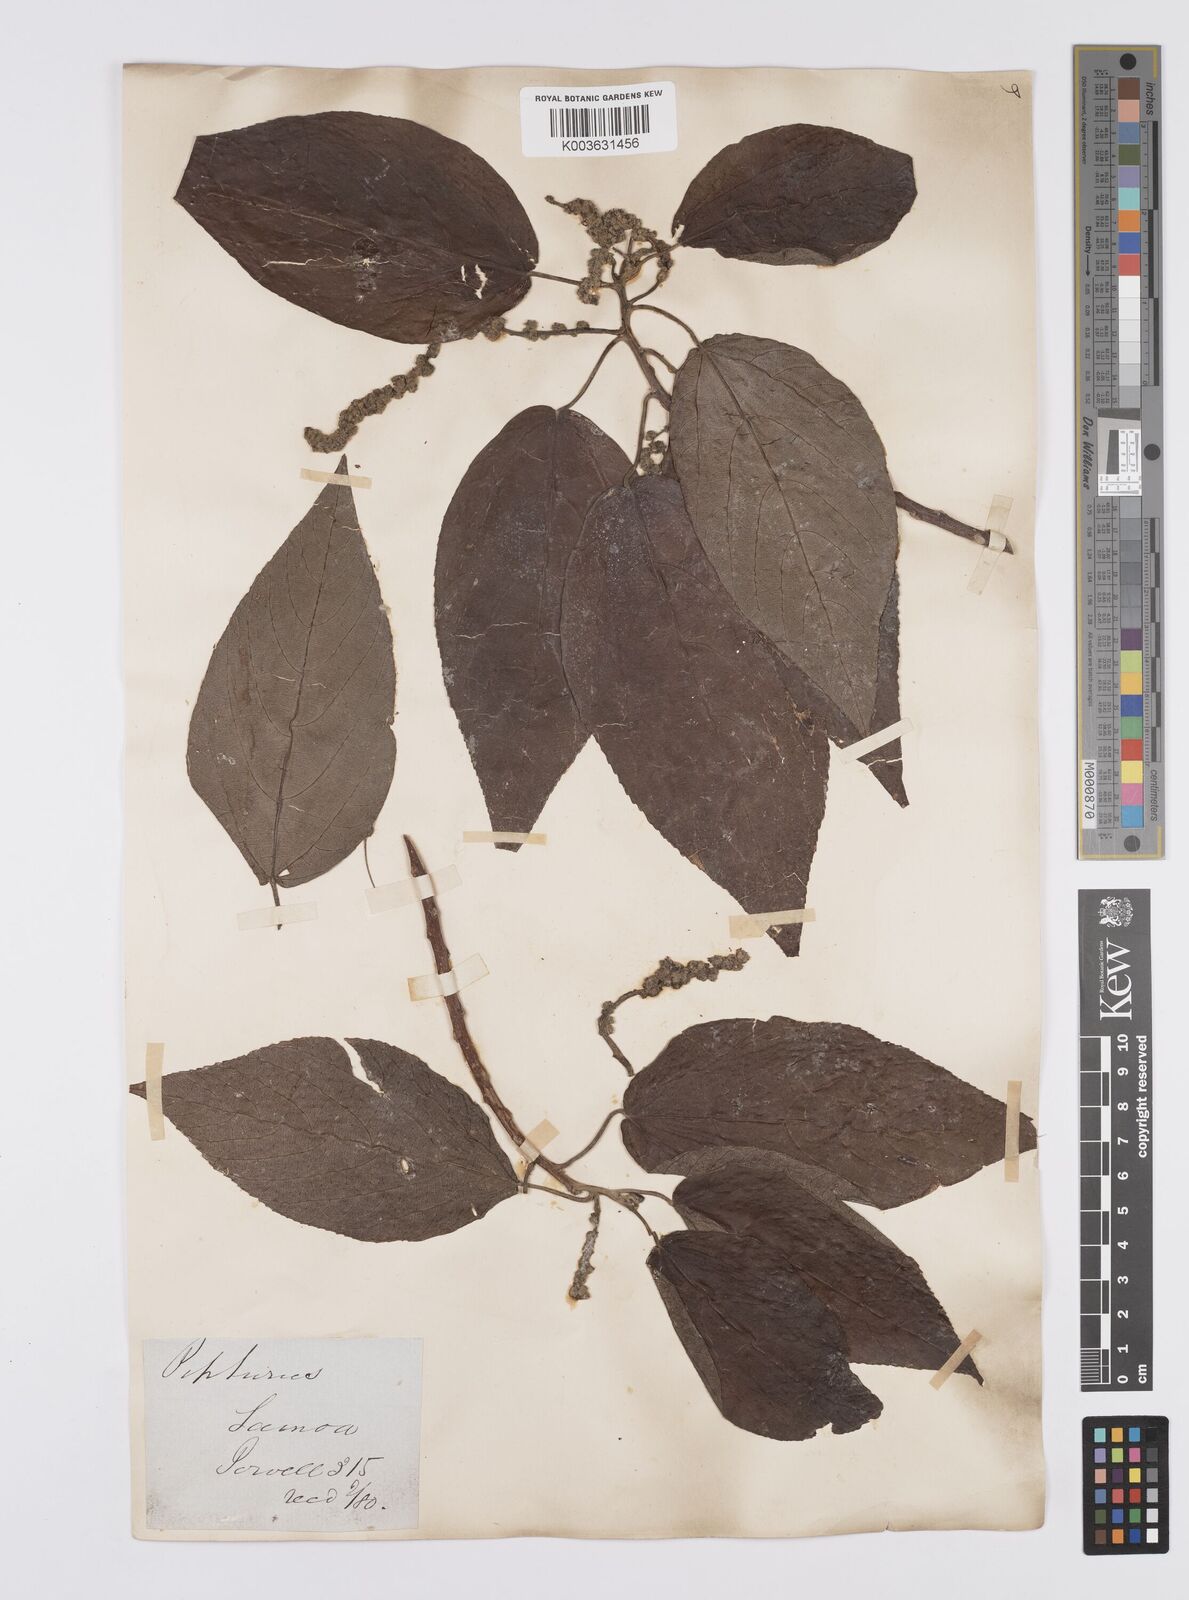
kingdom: Plantae
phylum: Tracheophyta
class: Magnoliopsida
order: Rosales
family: Urticaceae
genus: Pipturus
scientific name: Pipturus
